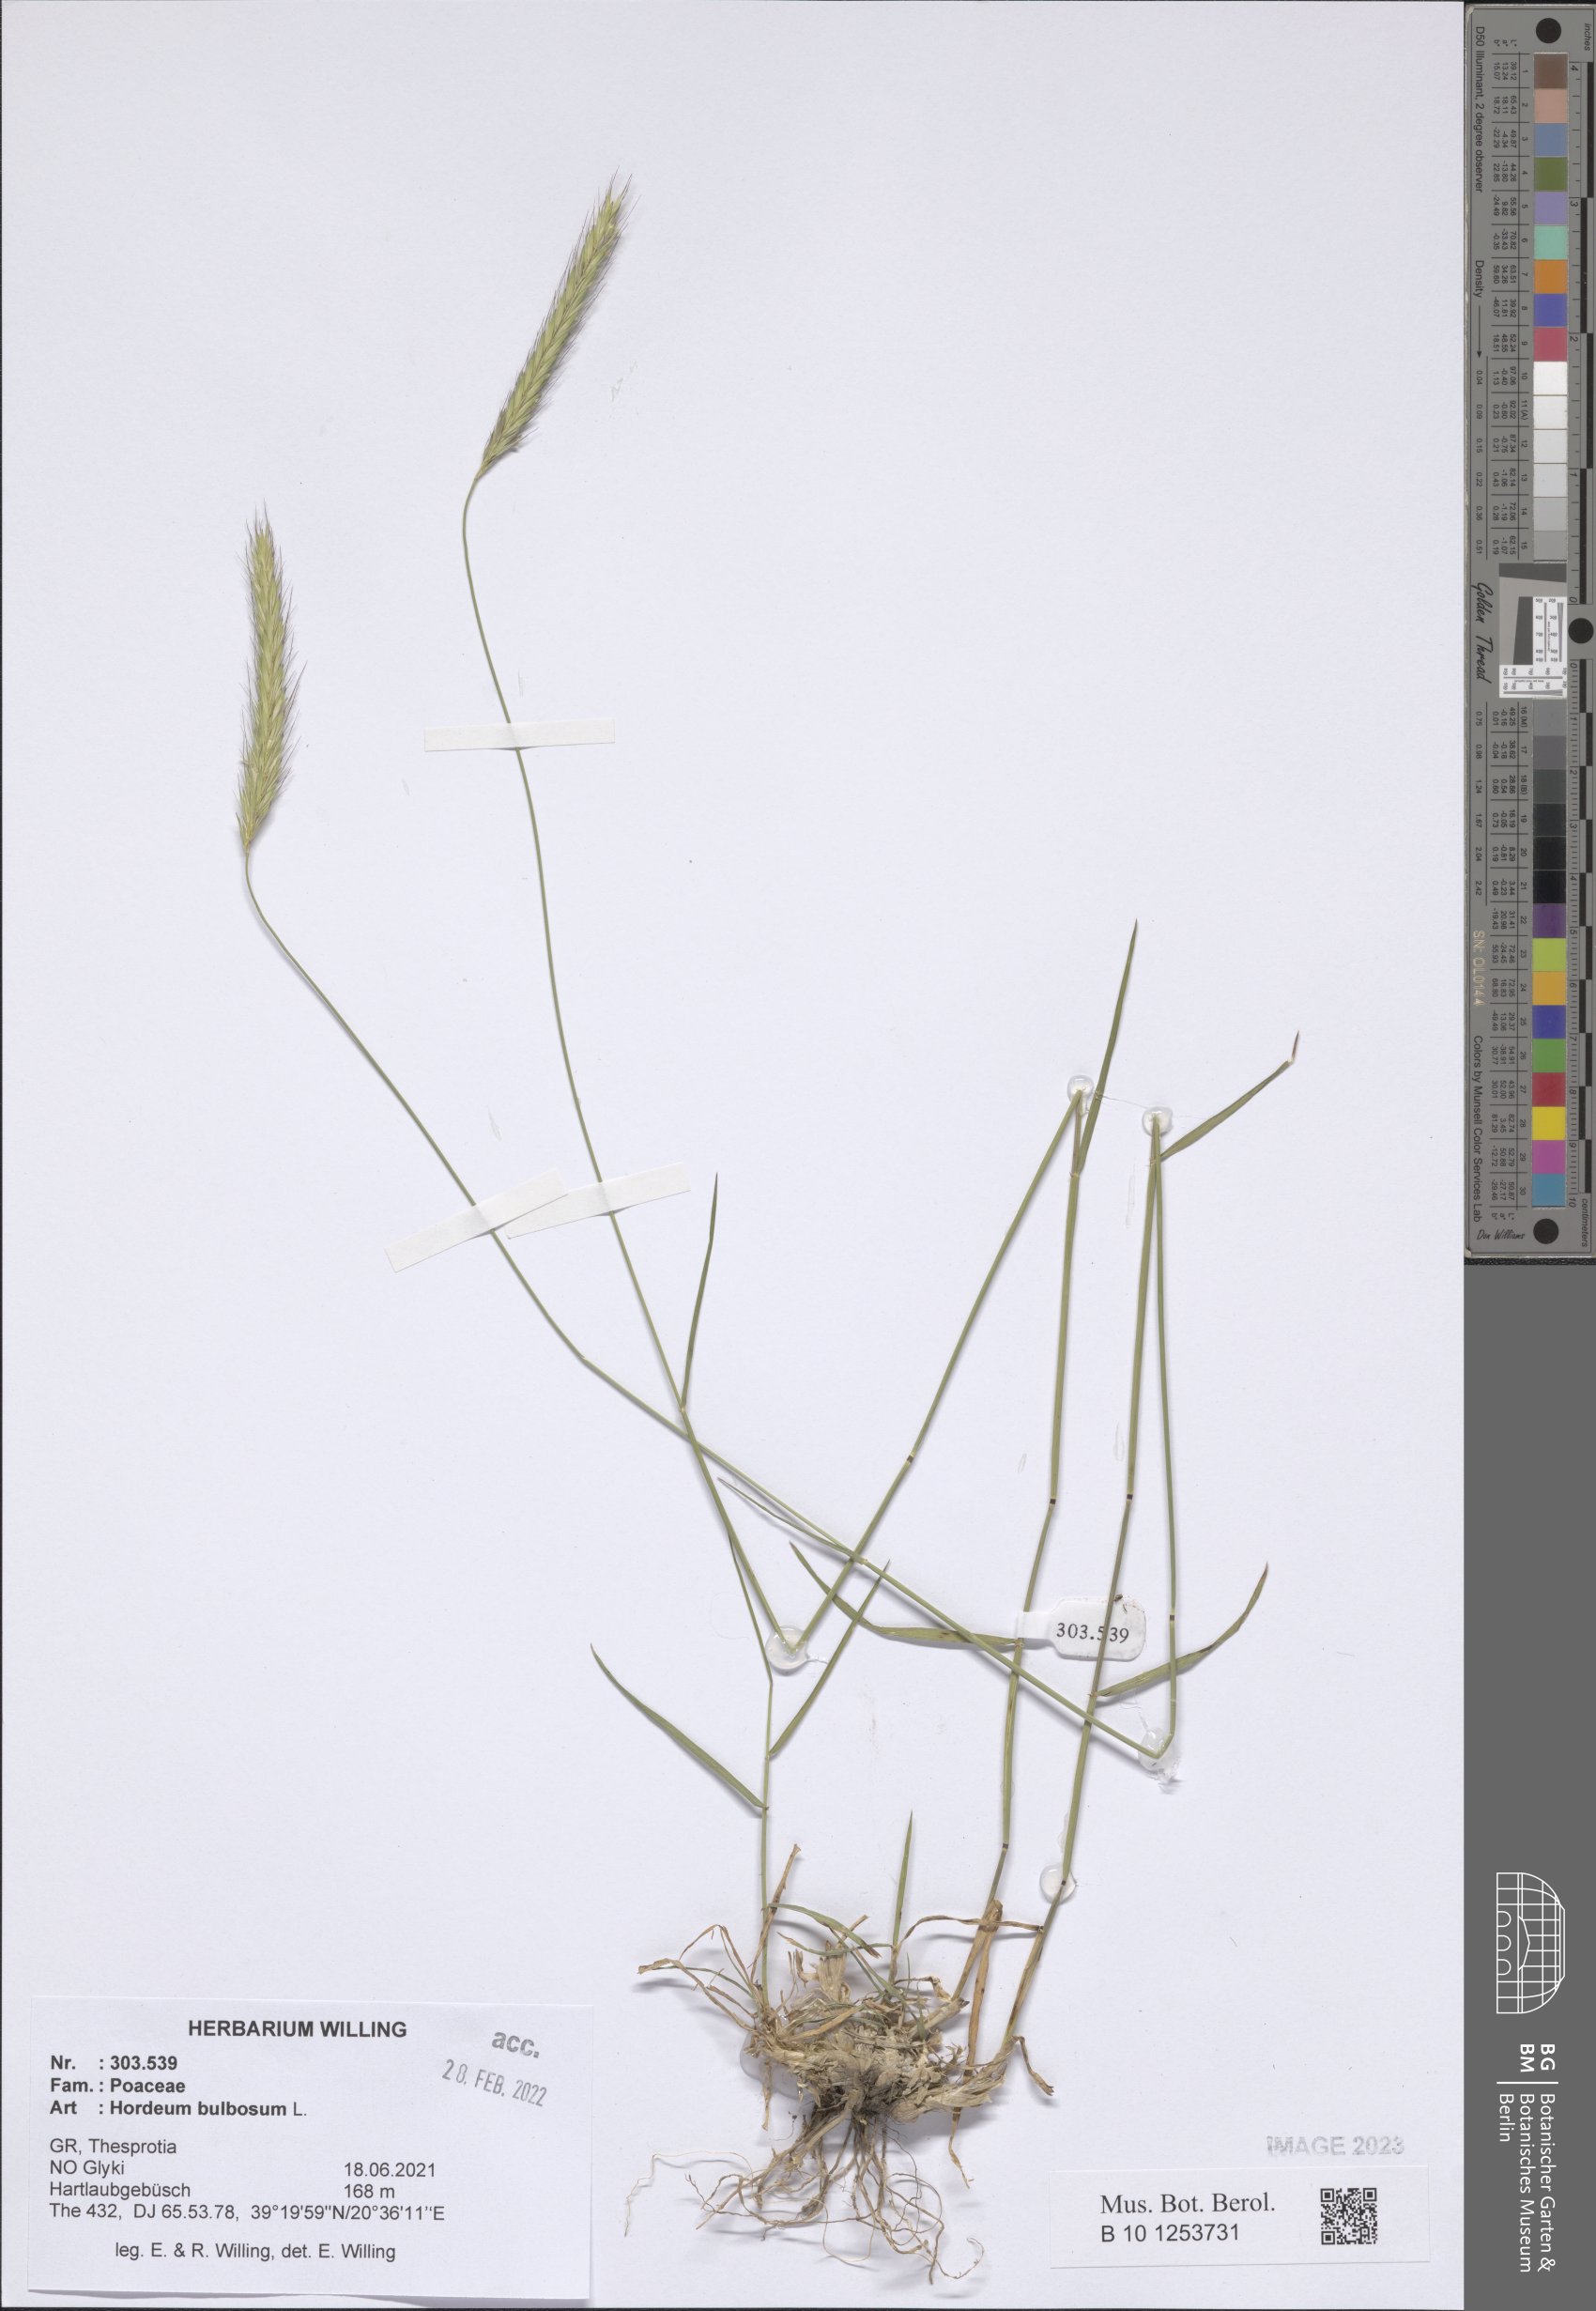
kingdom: Plantae
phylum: Tracheophyta
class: Liliopsida
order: Poales
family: Poaceae
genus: Hordeum
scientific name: Hordeum bulbosum
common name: Bulbous barley
